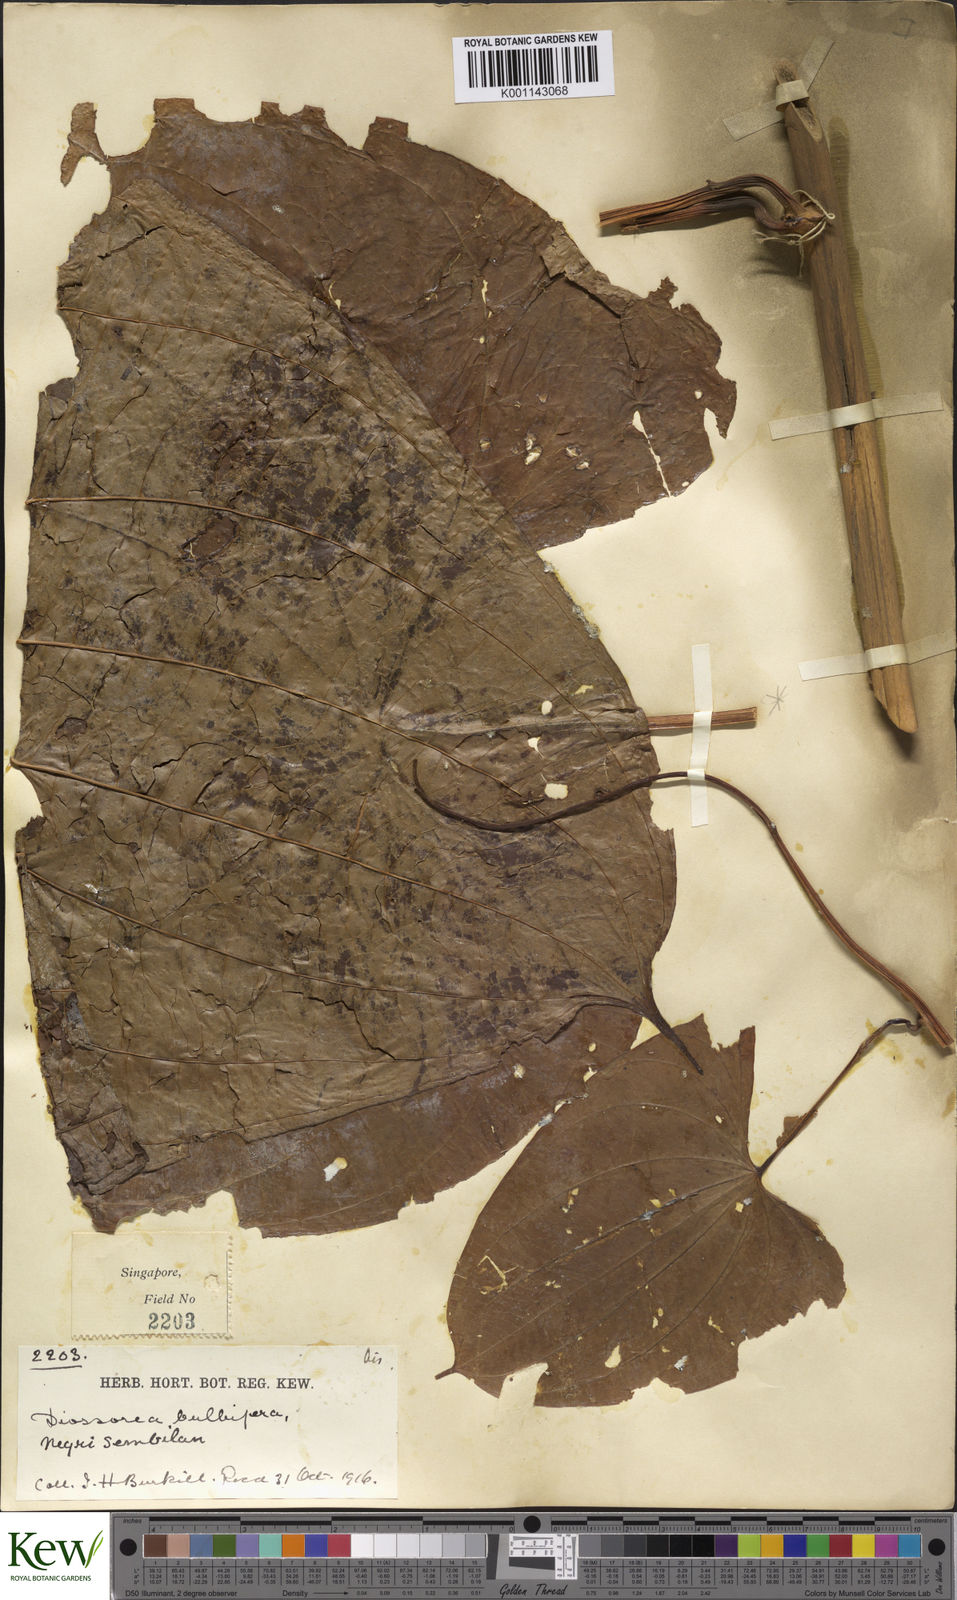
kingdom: Plantae
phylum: Tracheophyta
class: Liliopsida
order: Dioscoreales
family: Dioscoreaceae
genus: Dioscorea
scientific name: Dioscorea bulbifera
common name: Air yam
